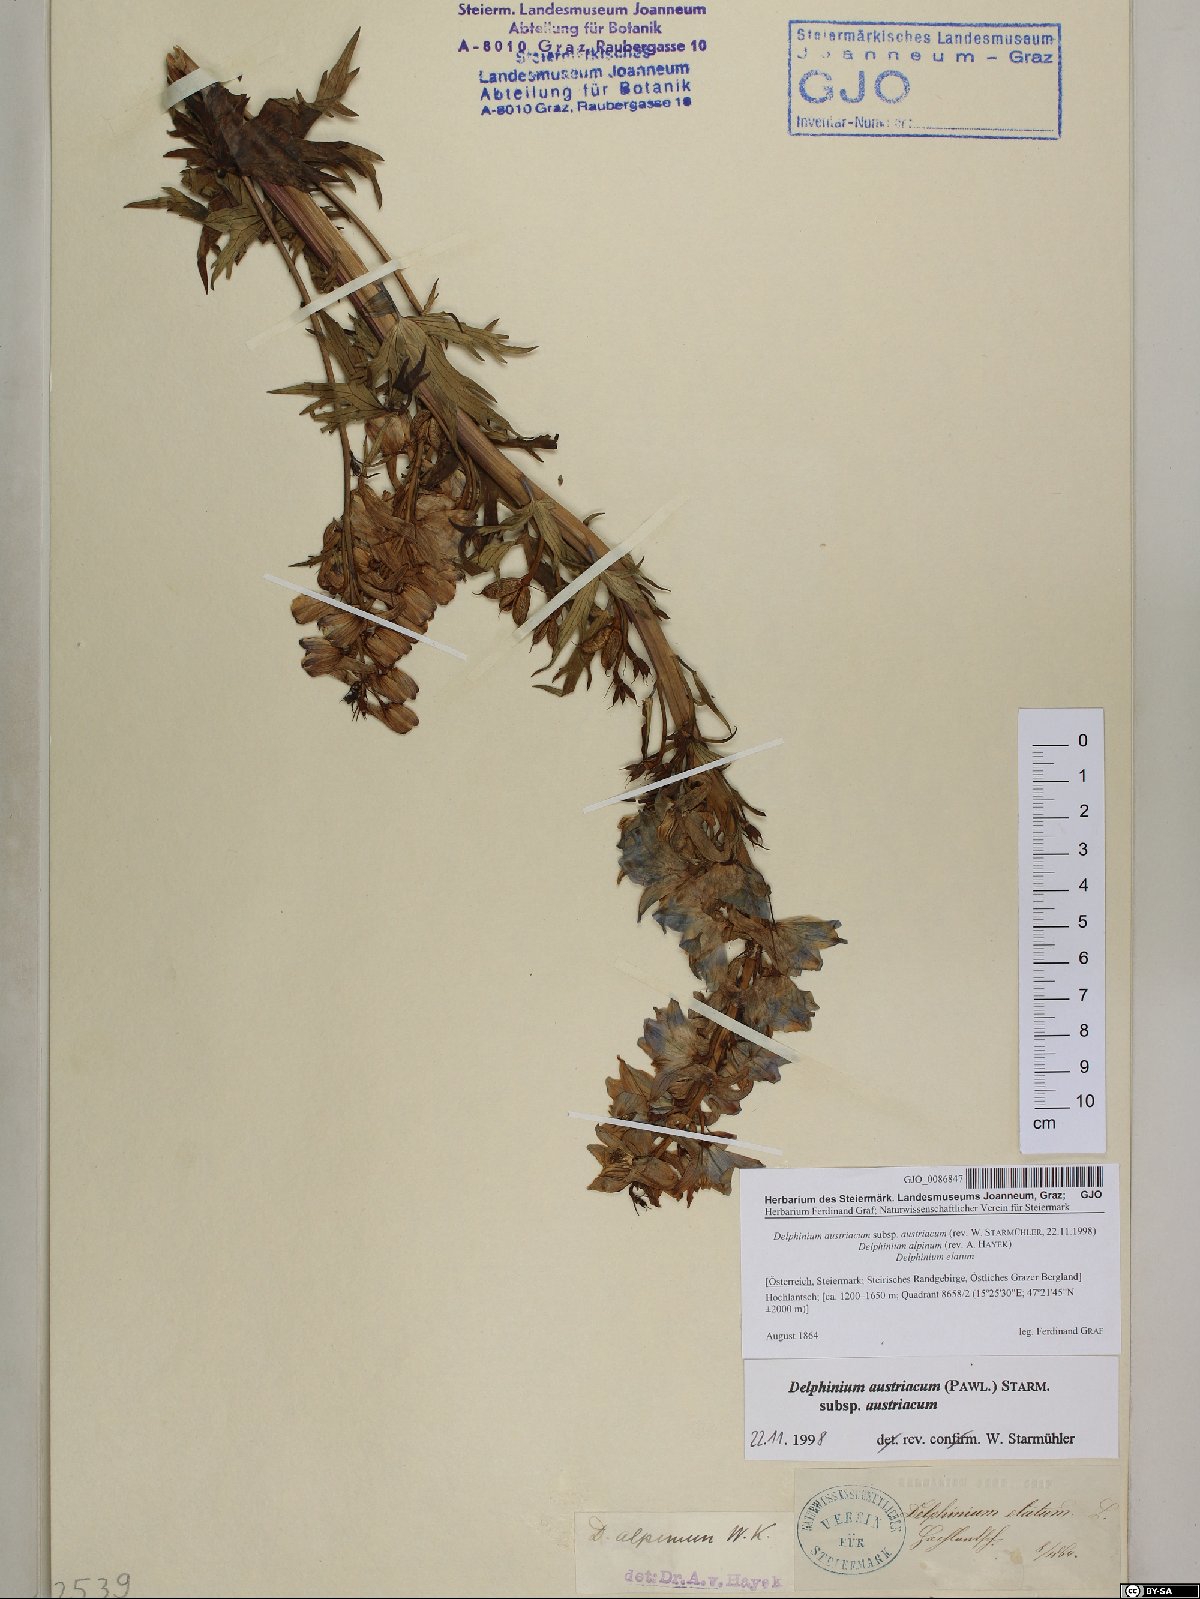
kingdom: Plantae
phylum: Tracheophyta
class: Magnoliopsida
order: Ranunculales
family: Ranunculaceae
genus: Delphinium
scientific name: Delphinium austriacum
